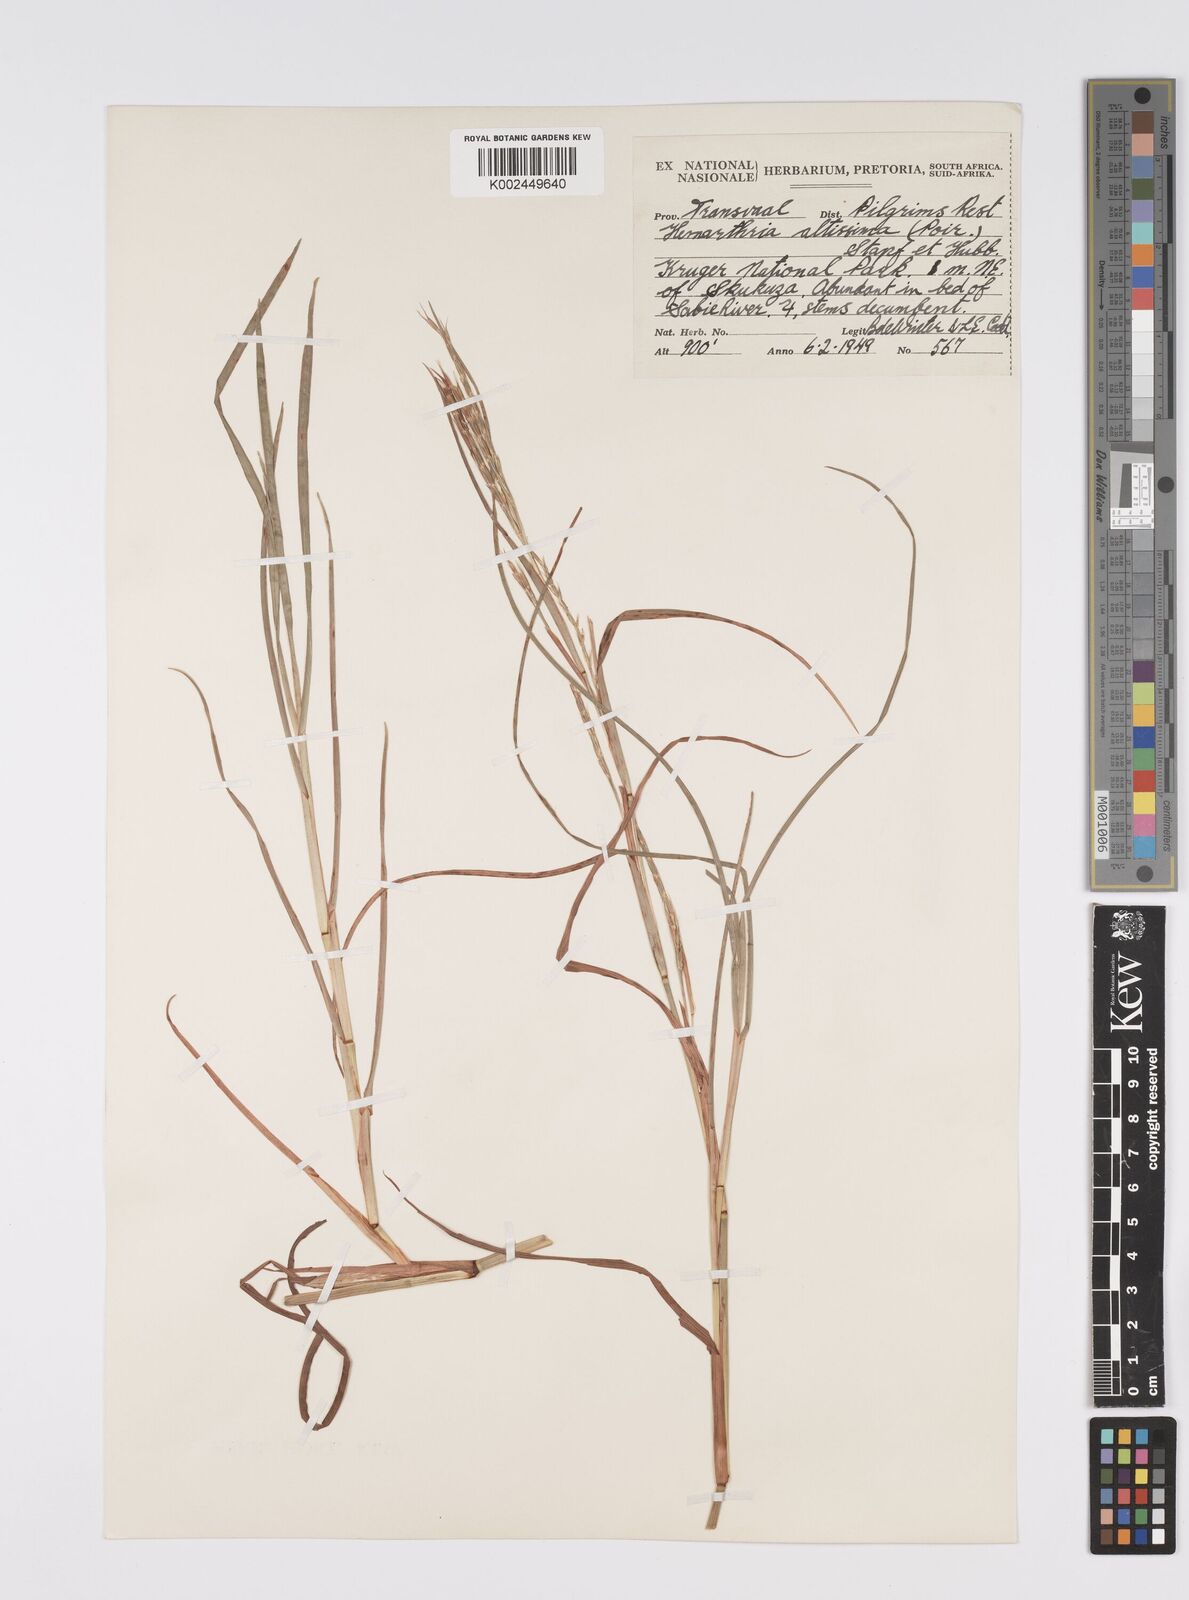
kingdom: Plantae
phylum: Tracheophyta
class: Liliopsida
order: Poales
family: Poaceae
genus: Hemarthria
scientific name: Hemarthria altissima
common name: African jointgrass
